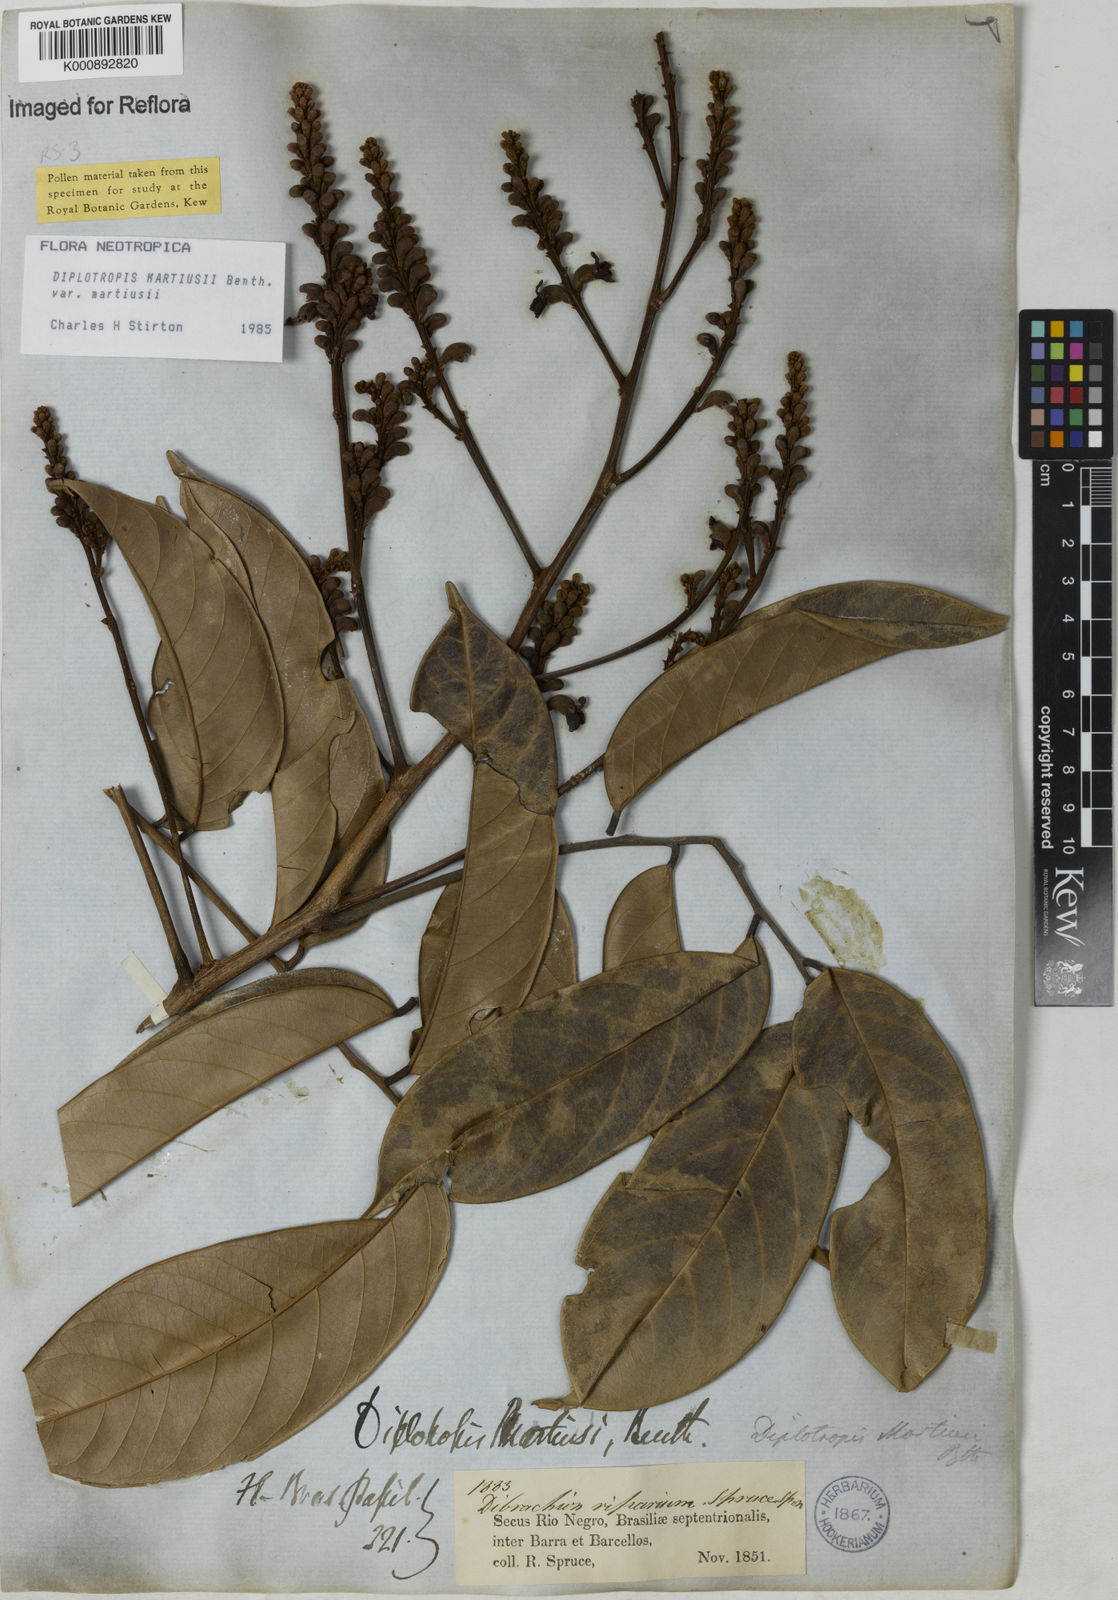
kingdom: Plantae
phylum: Tracheophyta
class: Magnoliopsida
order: Fabales
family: Fabaceae
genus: Diplotropis
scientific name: Diplotropis
